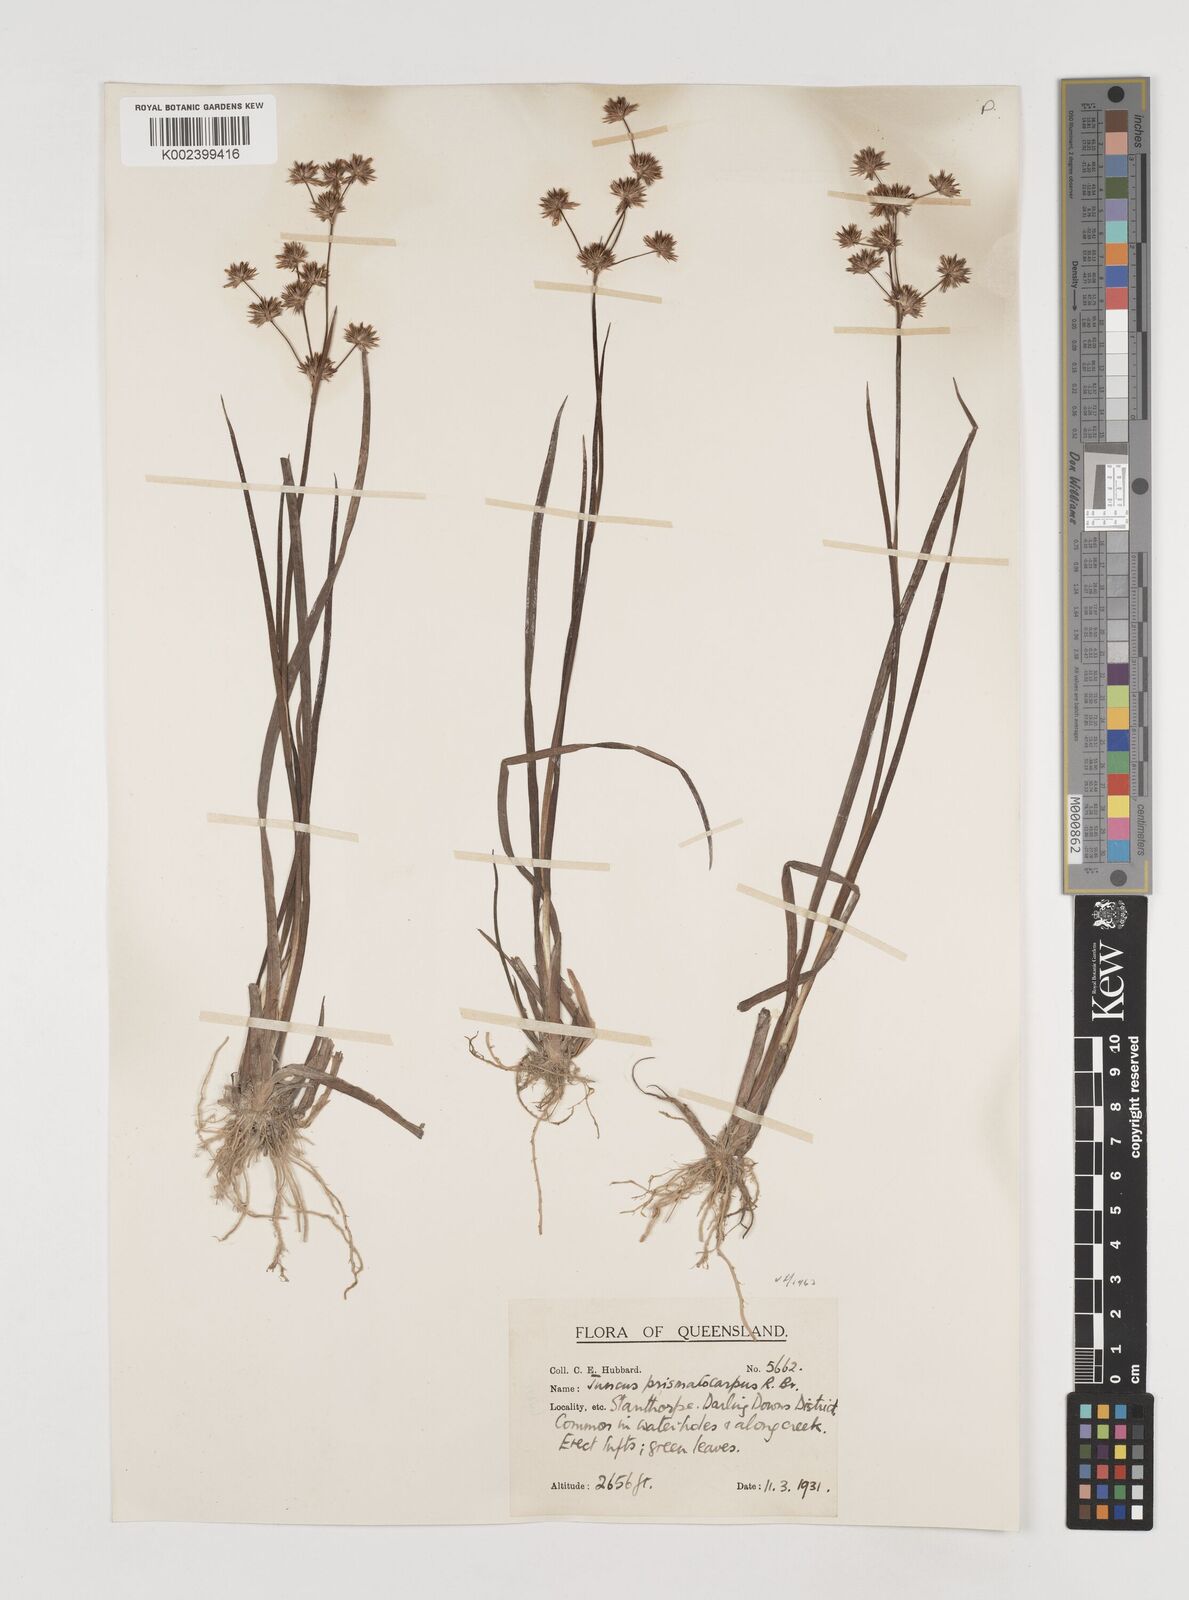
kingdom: Plantae
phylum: Tracheophyta
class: Liliopsida
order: Poales
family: Juncaceae
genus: Juncus
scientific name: Juncus prismatocarpus
